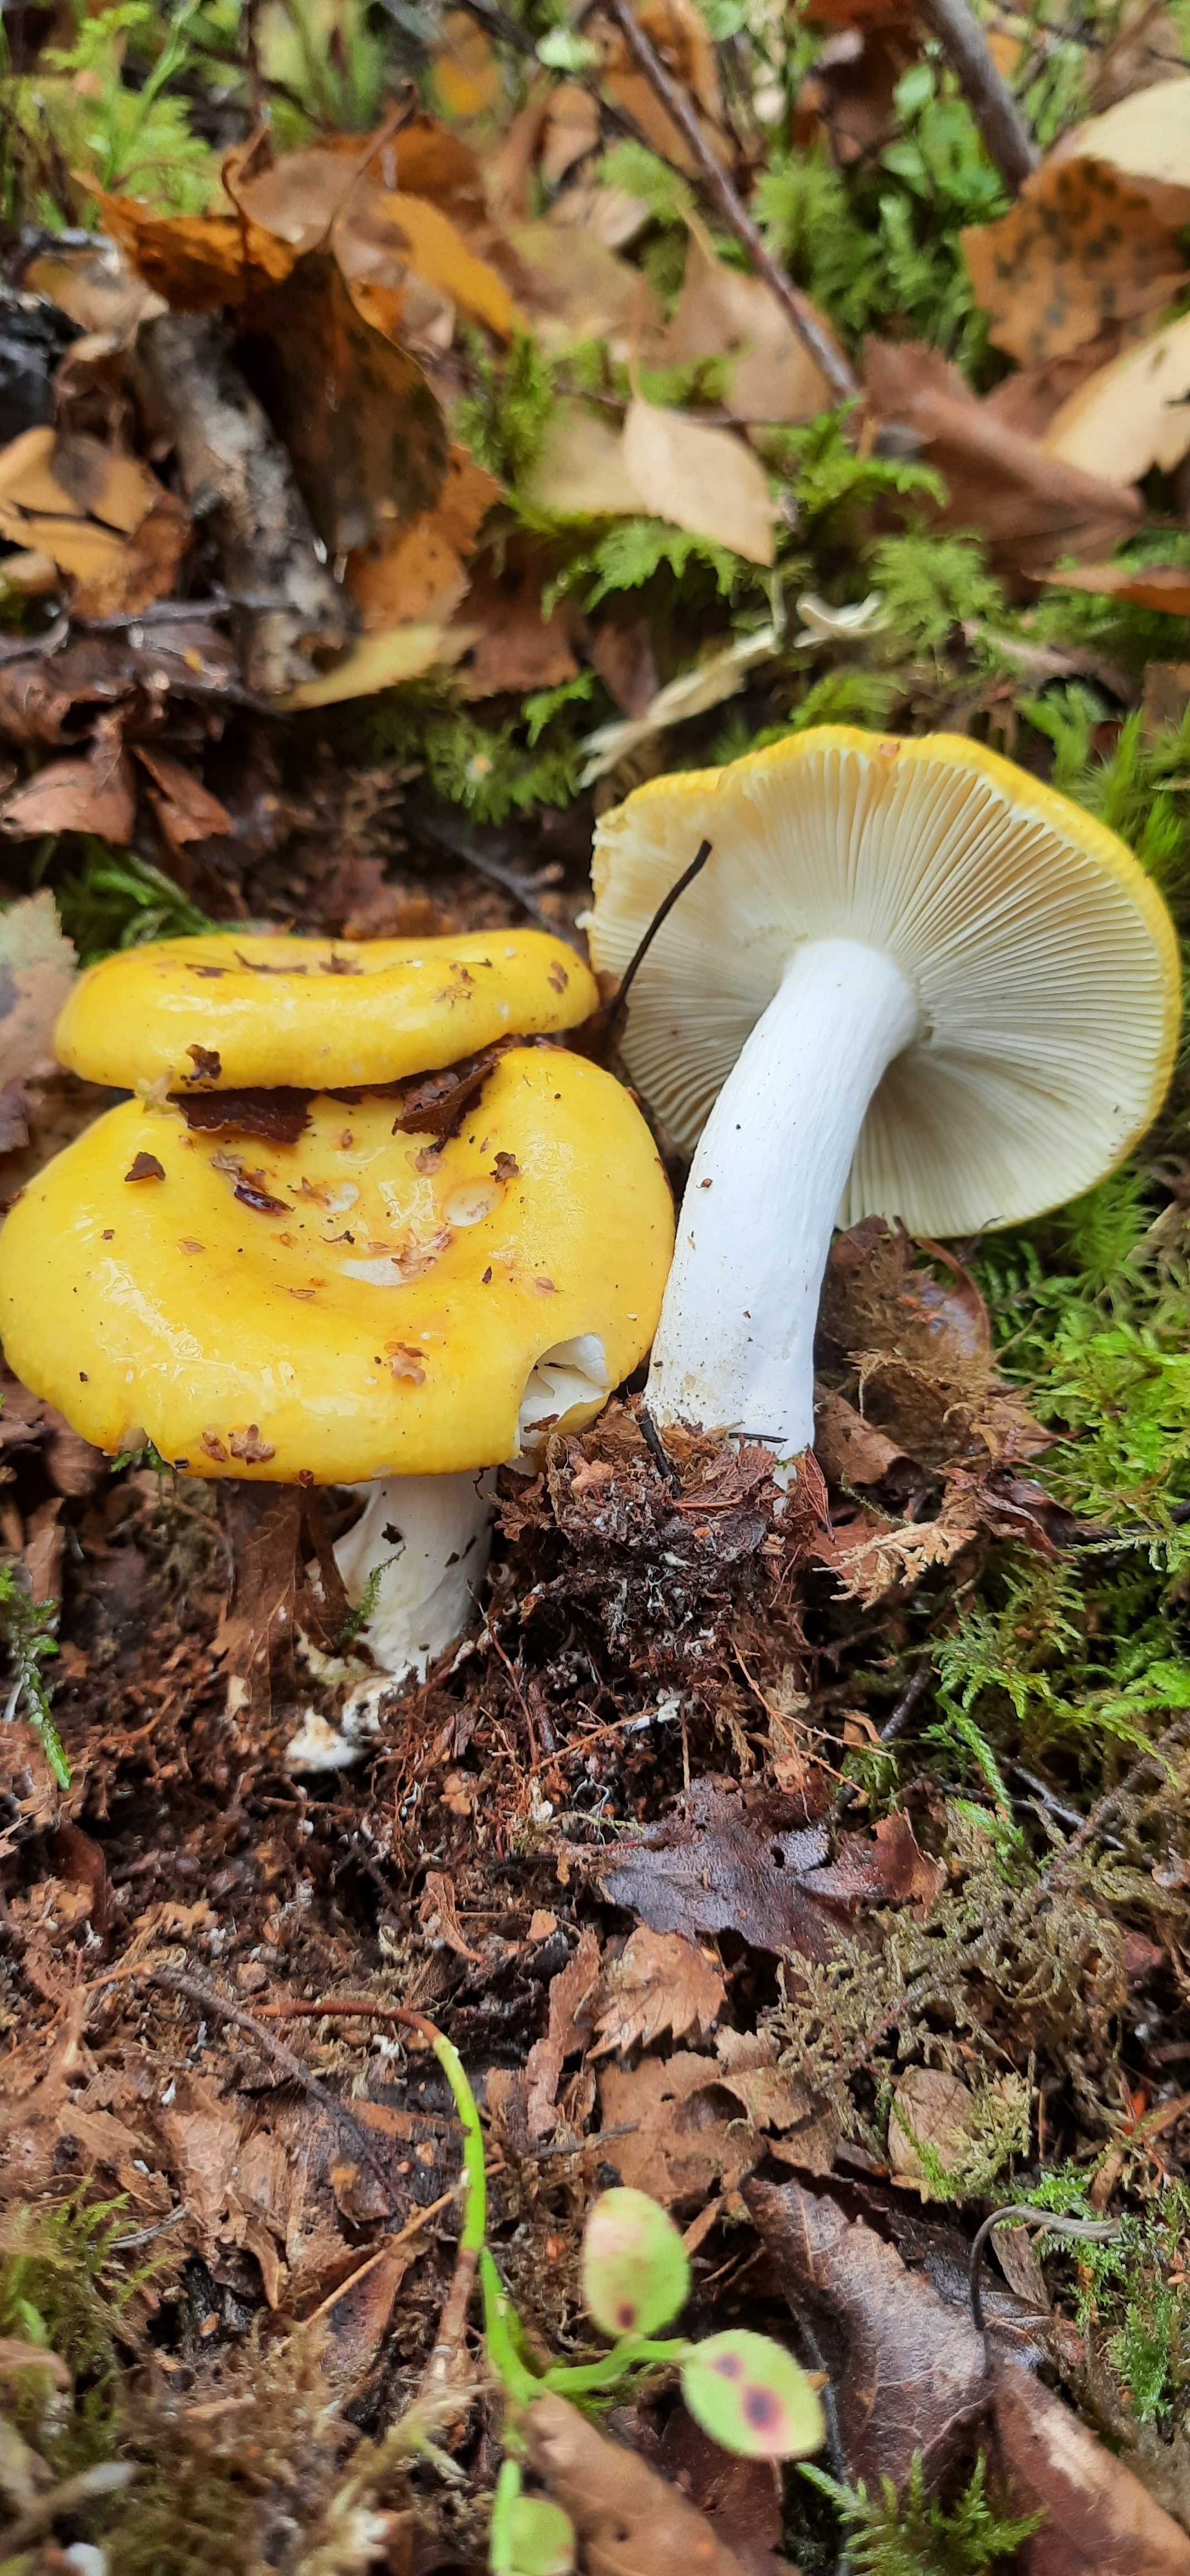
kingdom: Fungi
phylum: Basidiomycota
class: Agaricomycetes
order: Russulales
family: Russulaceae
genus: Russula
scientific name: Russula claroflava
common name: birke-skørhat
